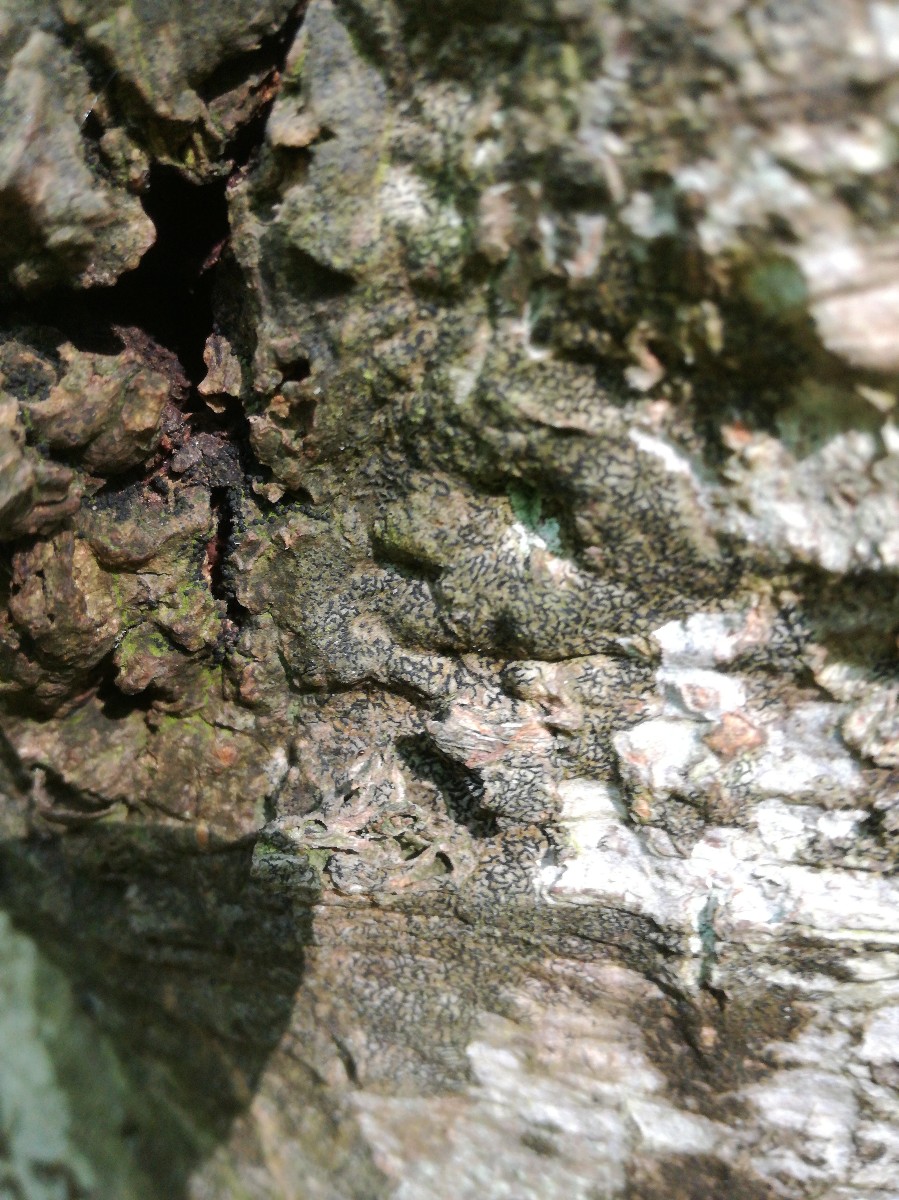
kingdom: Fungi
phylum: Ascomycota
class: Arthoniomycetes
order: Arthoniales
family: Arthoniaceae
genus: Arthonia
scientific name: Arthonia atra
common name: sort bogstavlav
